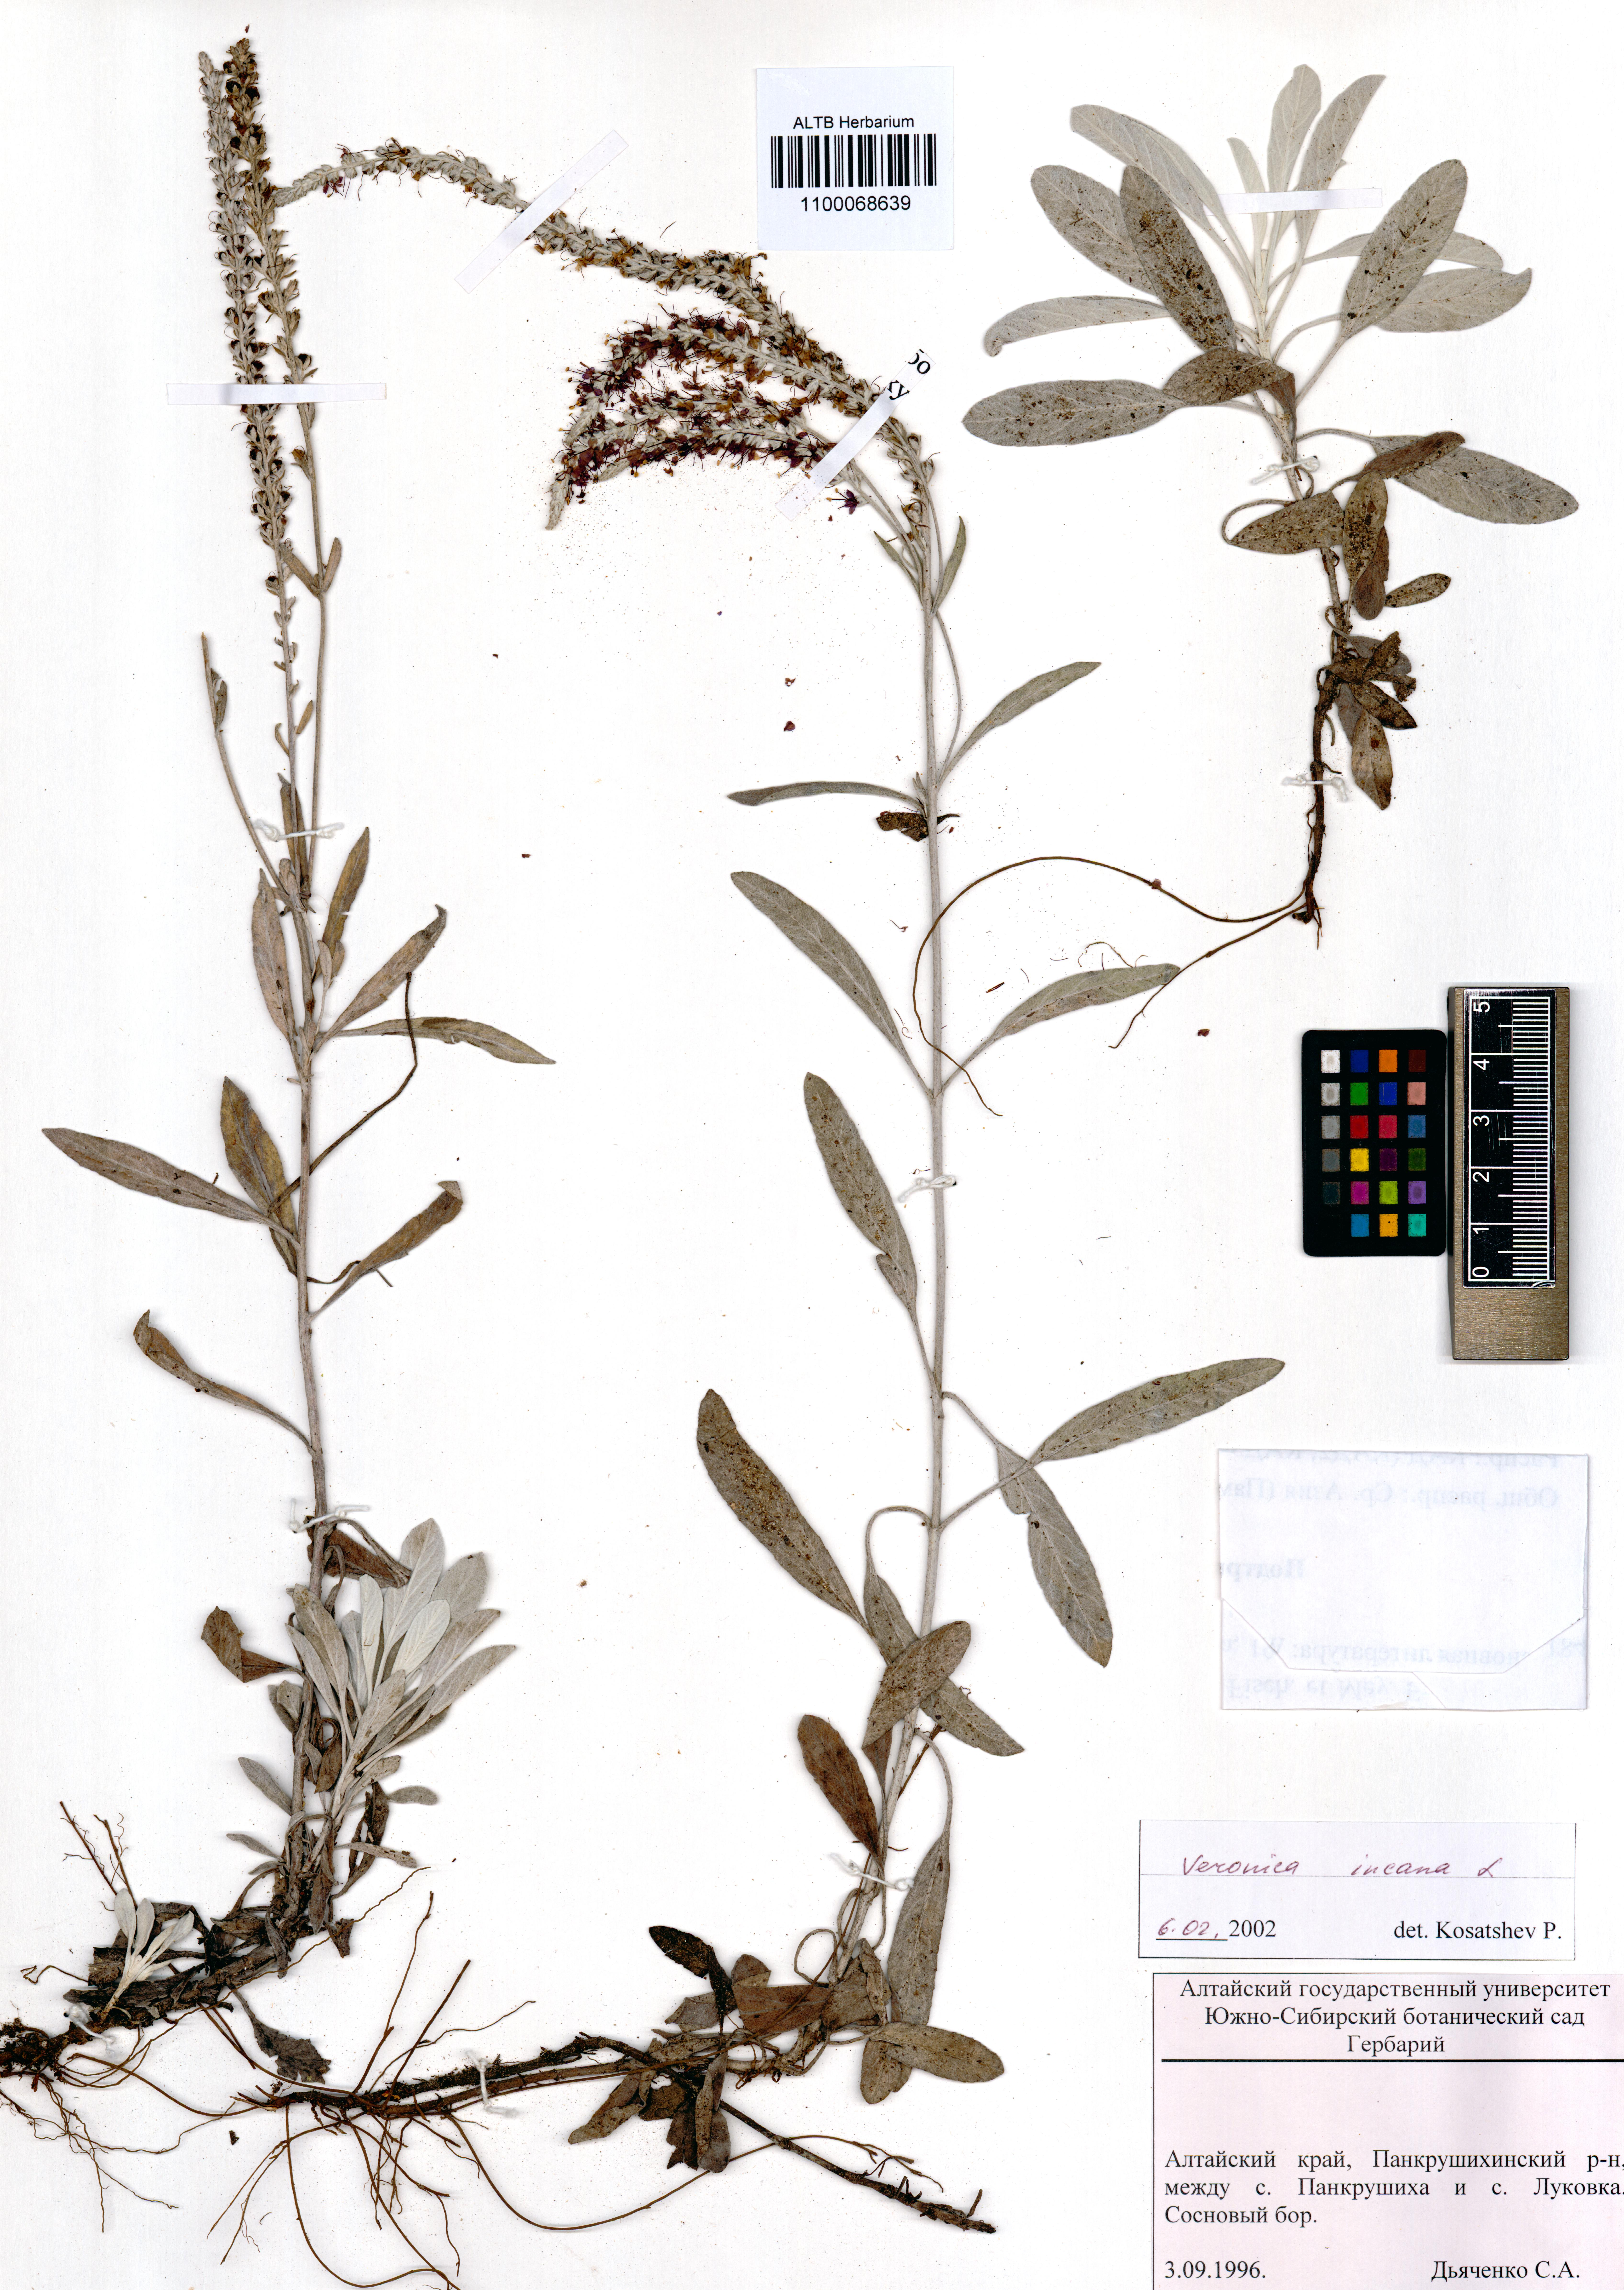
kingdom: Plantae
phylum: Tracheophyta
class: Magnoliopsida
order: Lamiales
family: Plantaginaceae
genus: Veronica
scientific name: Veronica incana
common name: Silver speedwell
